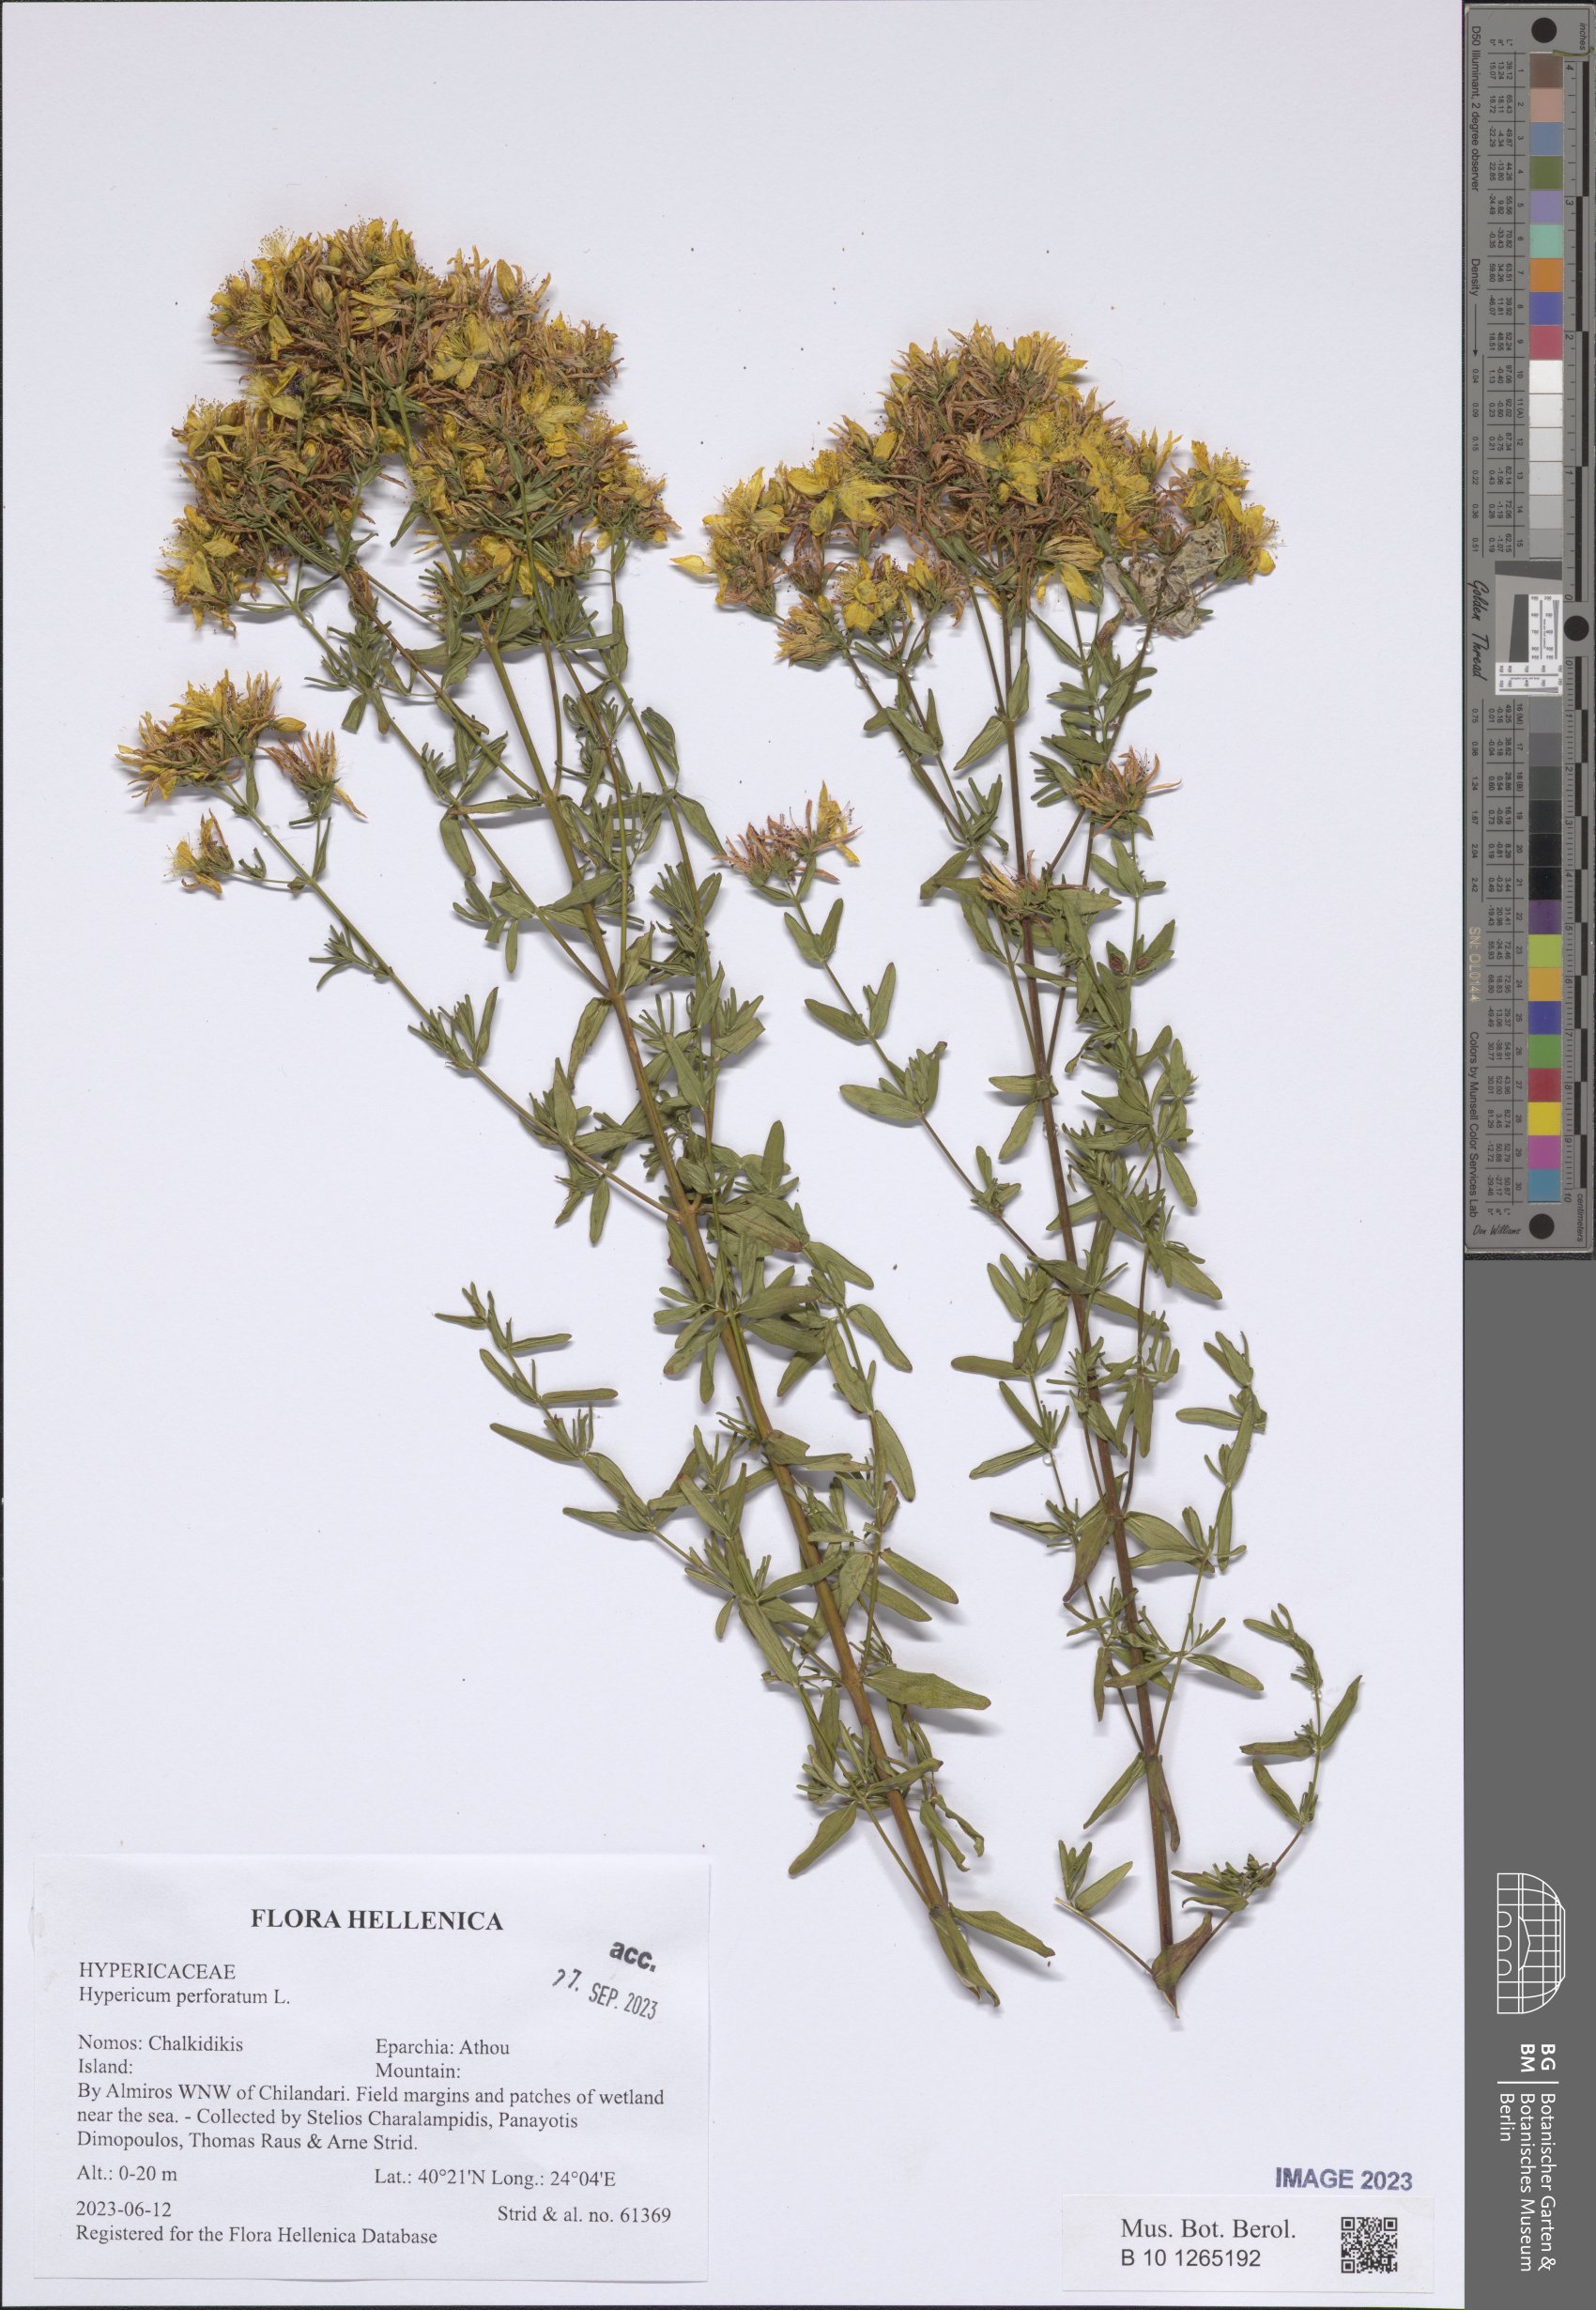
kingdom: Plantae
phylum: Tracheophyta
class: Magnoliopsida
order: Malpighiales
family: Hypericaceae
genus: Hypericum
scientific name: Hypericum perforatum
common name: Common st. johnswort
